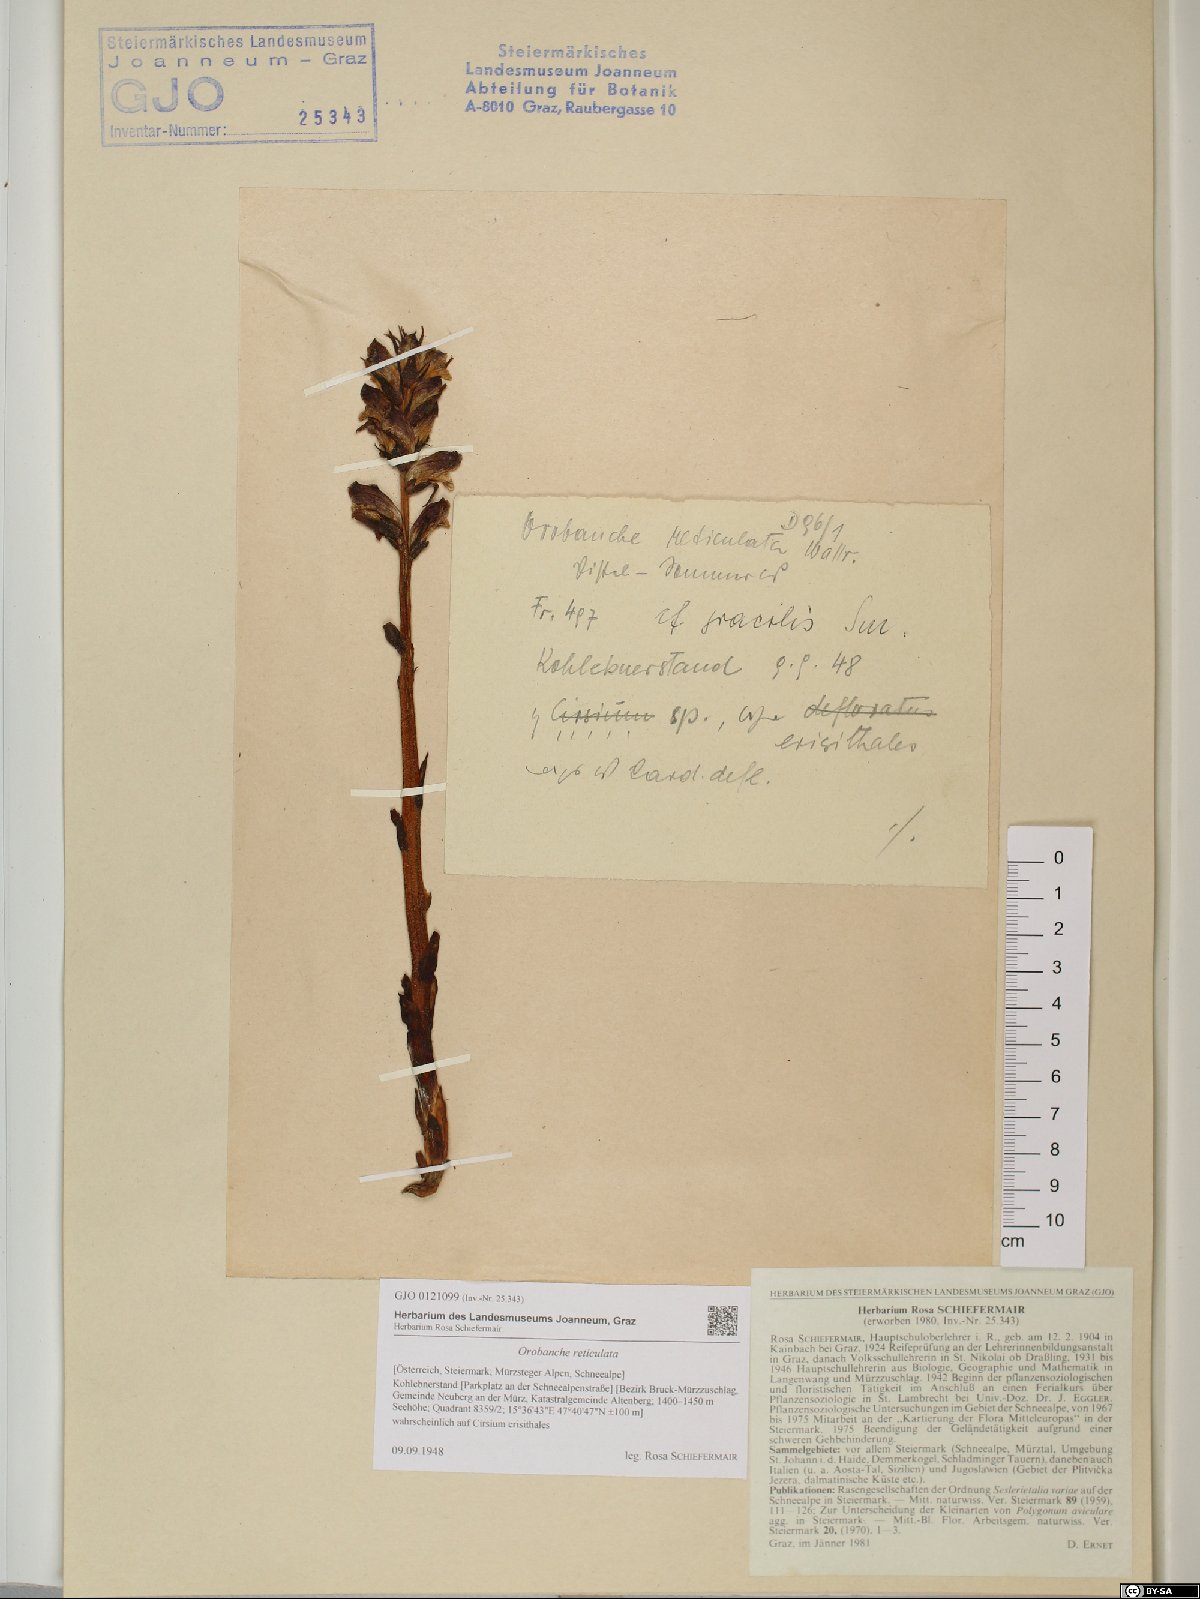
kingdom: Plantae
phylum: Tracheophyta
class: Magnoliopsida
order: Lamiales
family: Orobanchaceae
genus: Orobanche
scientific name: Orobanche reticulata
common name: Thistle broomrape
